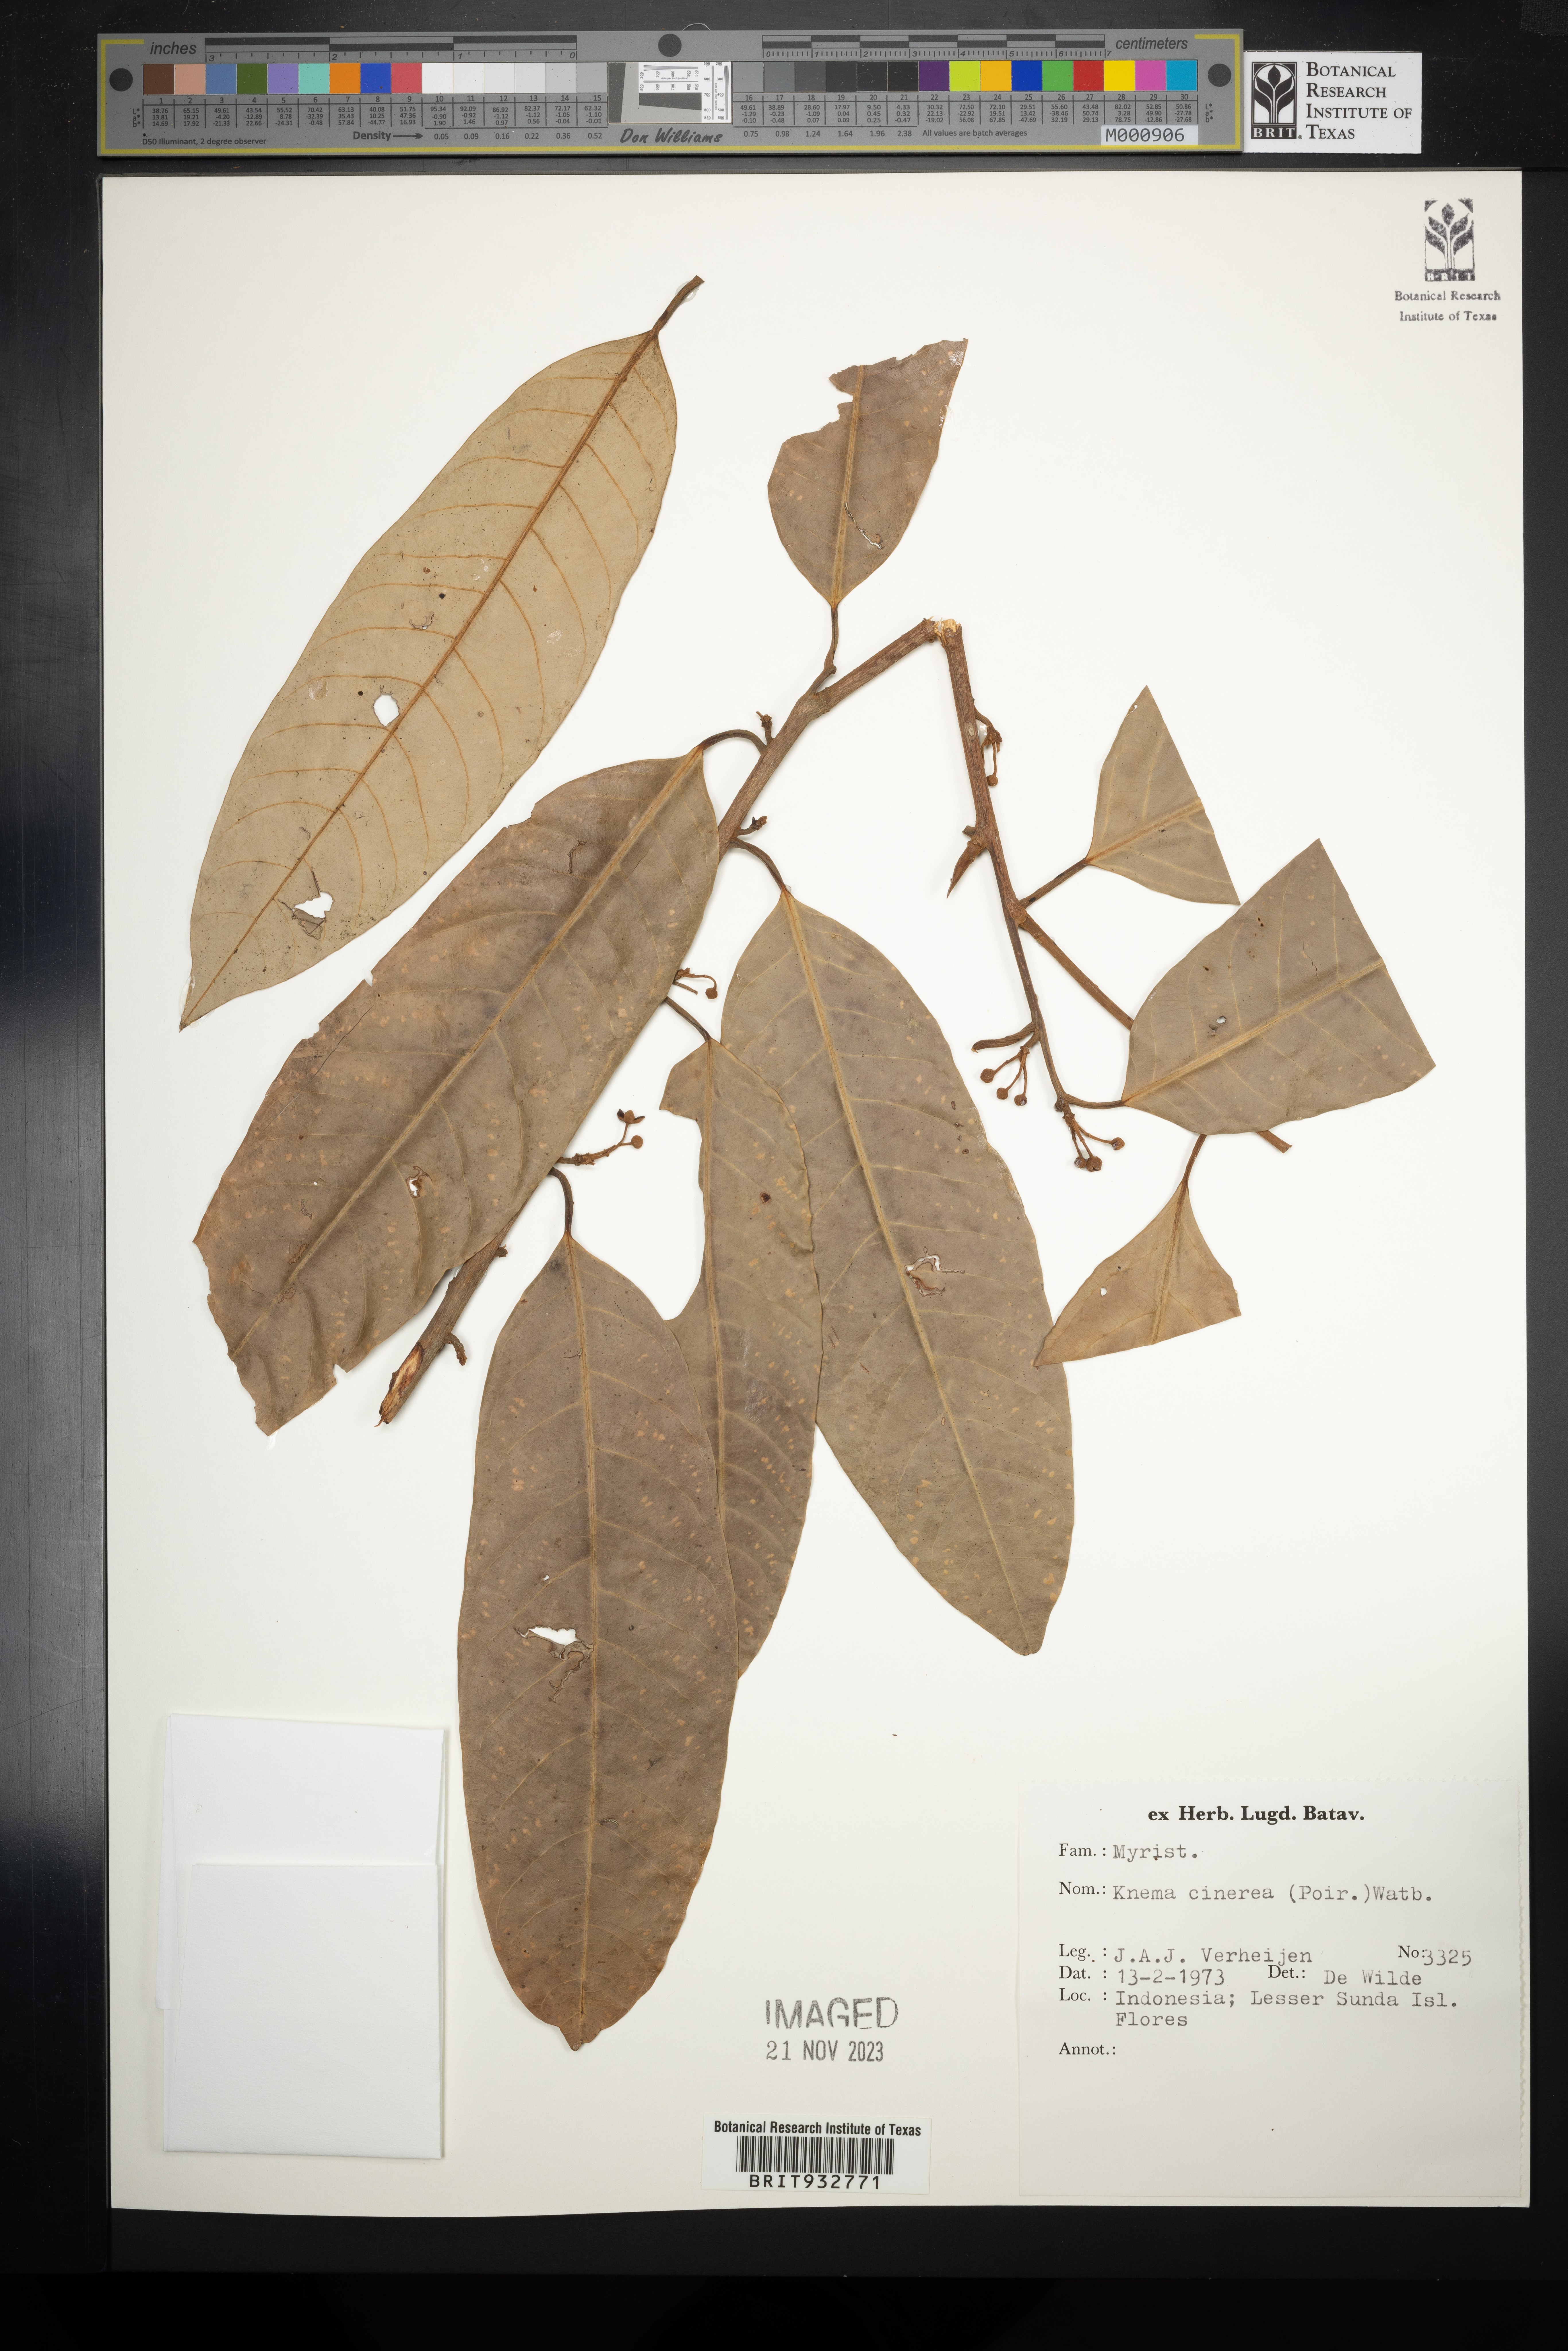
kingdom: Plantae
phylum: Tracheophyta
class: Magnoliopsida
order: Magnoliales
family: Myristicaceae
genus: Knema
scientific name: Knema
